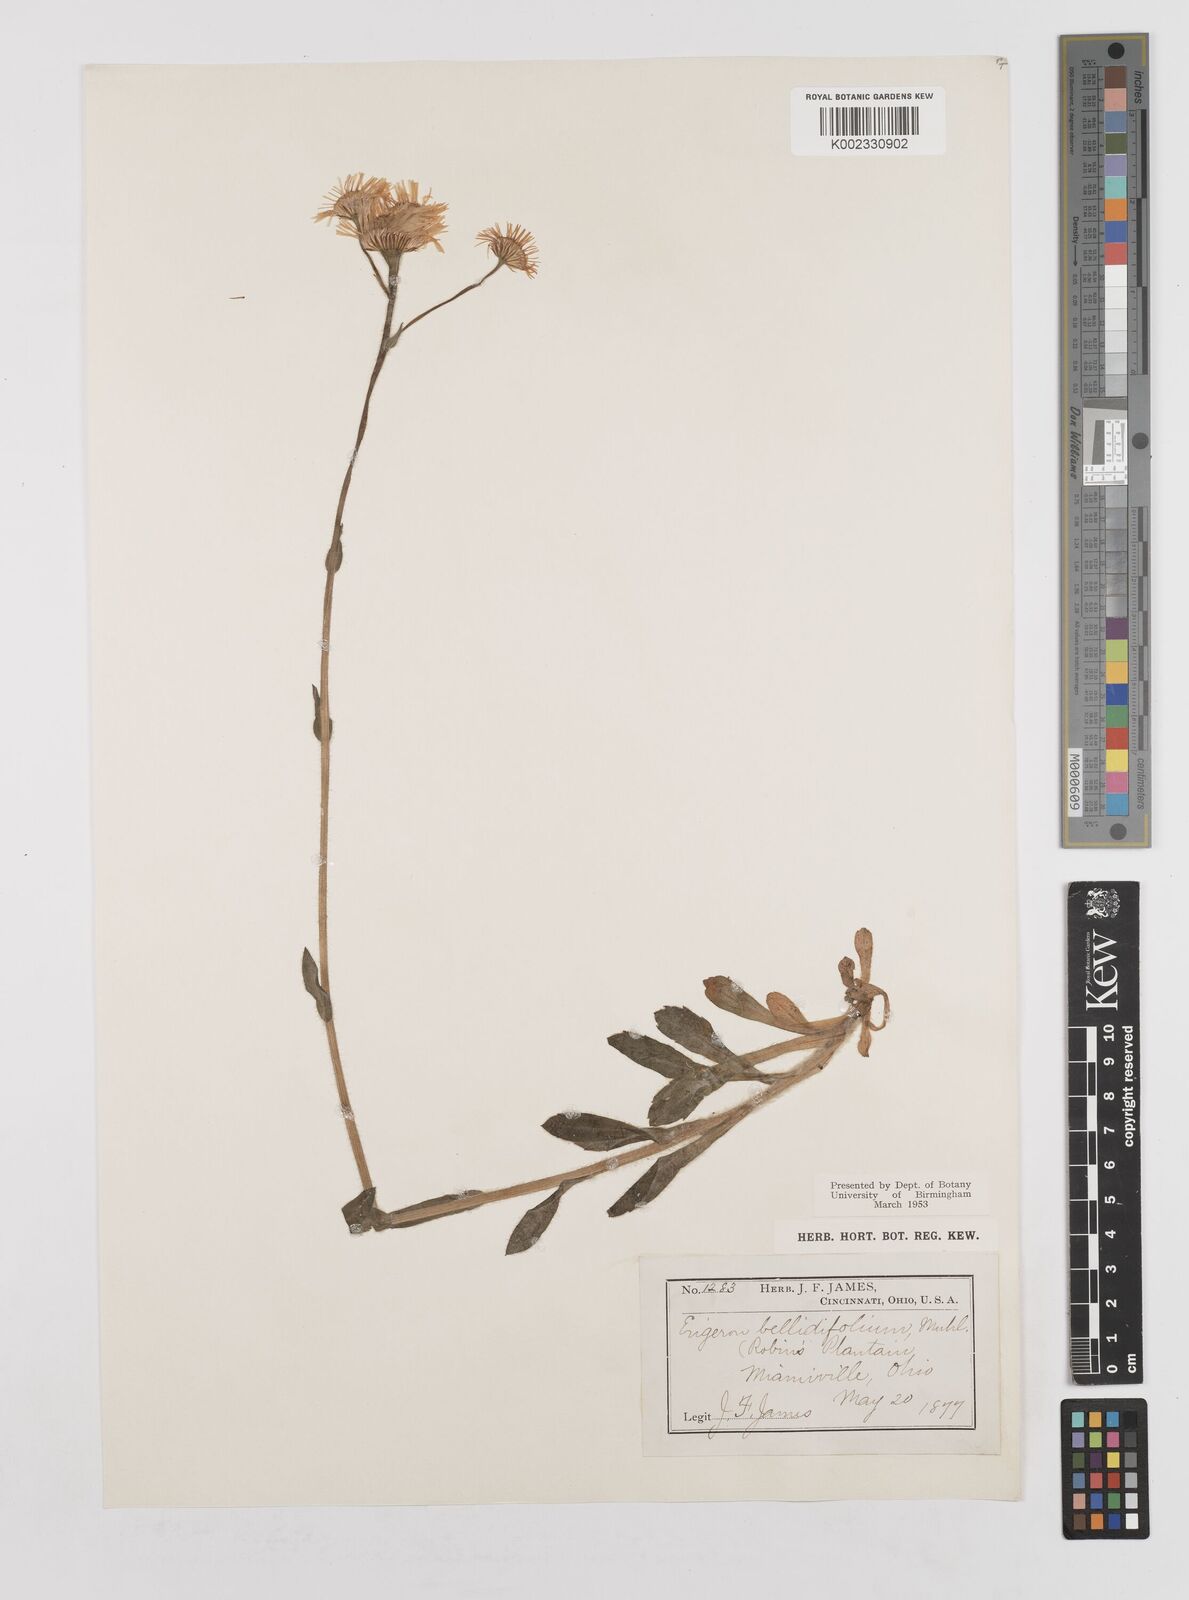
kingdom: Plantae
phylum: Tracheophyta
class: Magnoliopsida
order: Asterales
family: Asteraceae
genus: Erigeron
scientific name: Erigeron pulchellus
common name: Hairy fleabane
